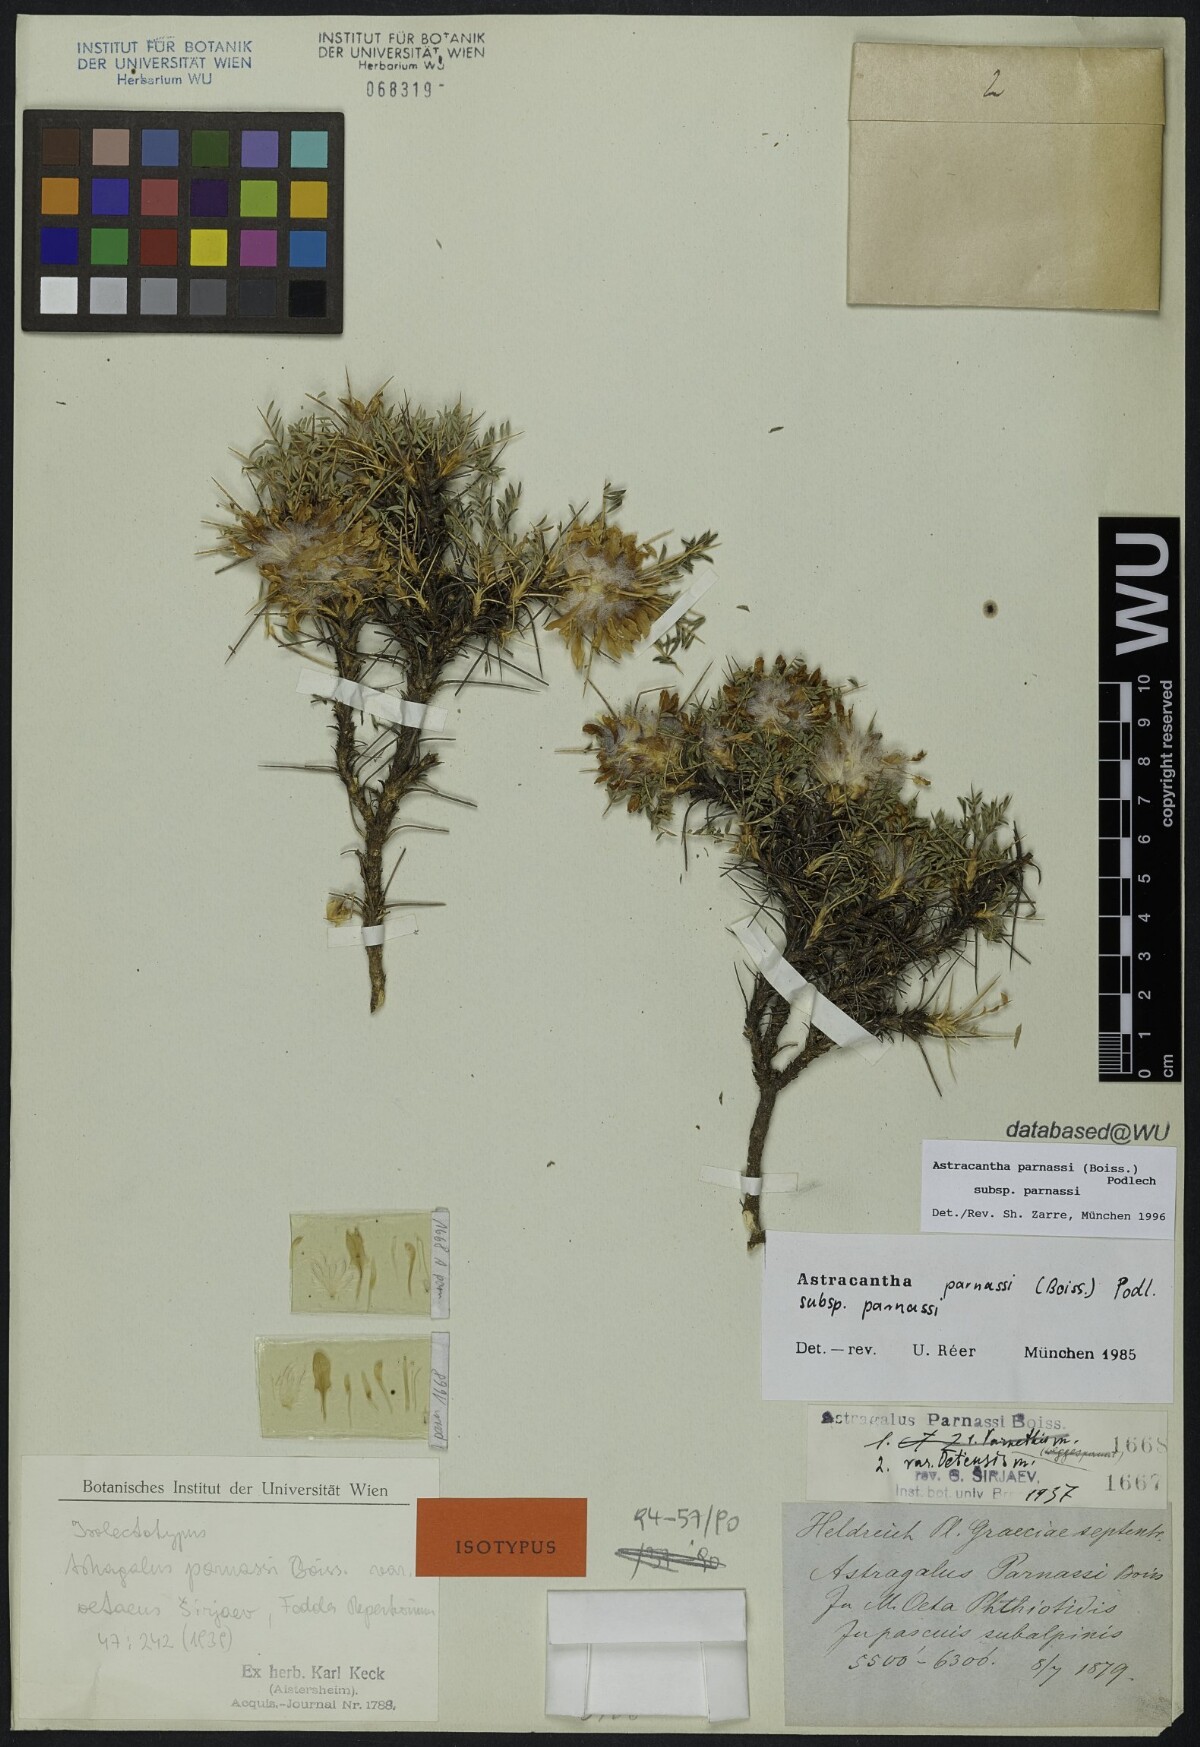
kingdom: Plantae
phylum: Tracheophyta
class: Magnoliopsida
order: Fabales
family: Fabaceae
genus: Astragalus
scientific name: Astragalus parnassi
